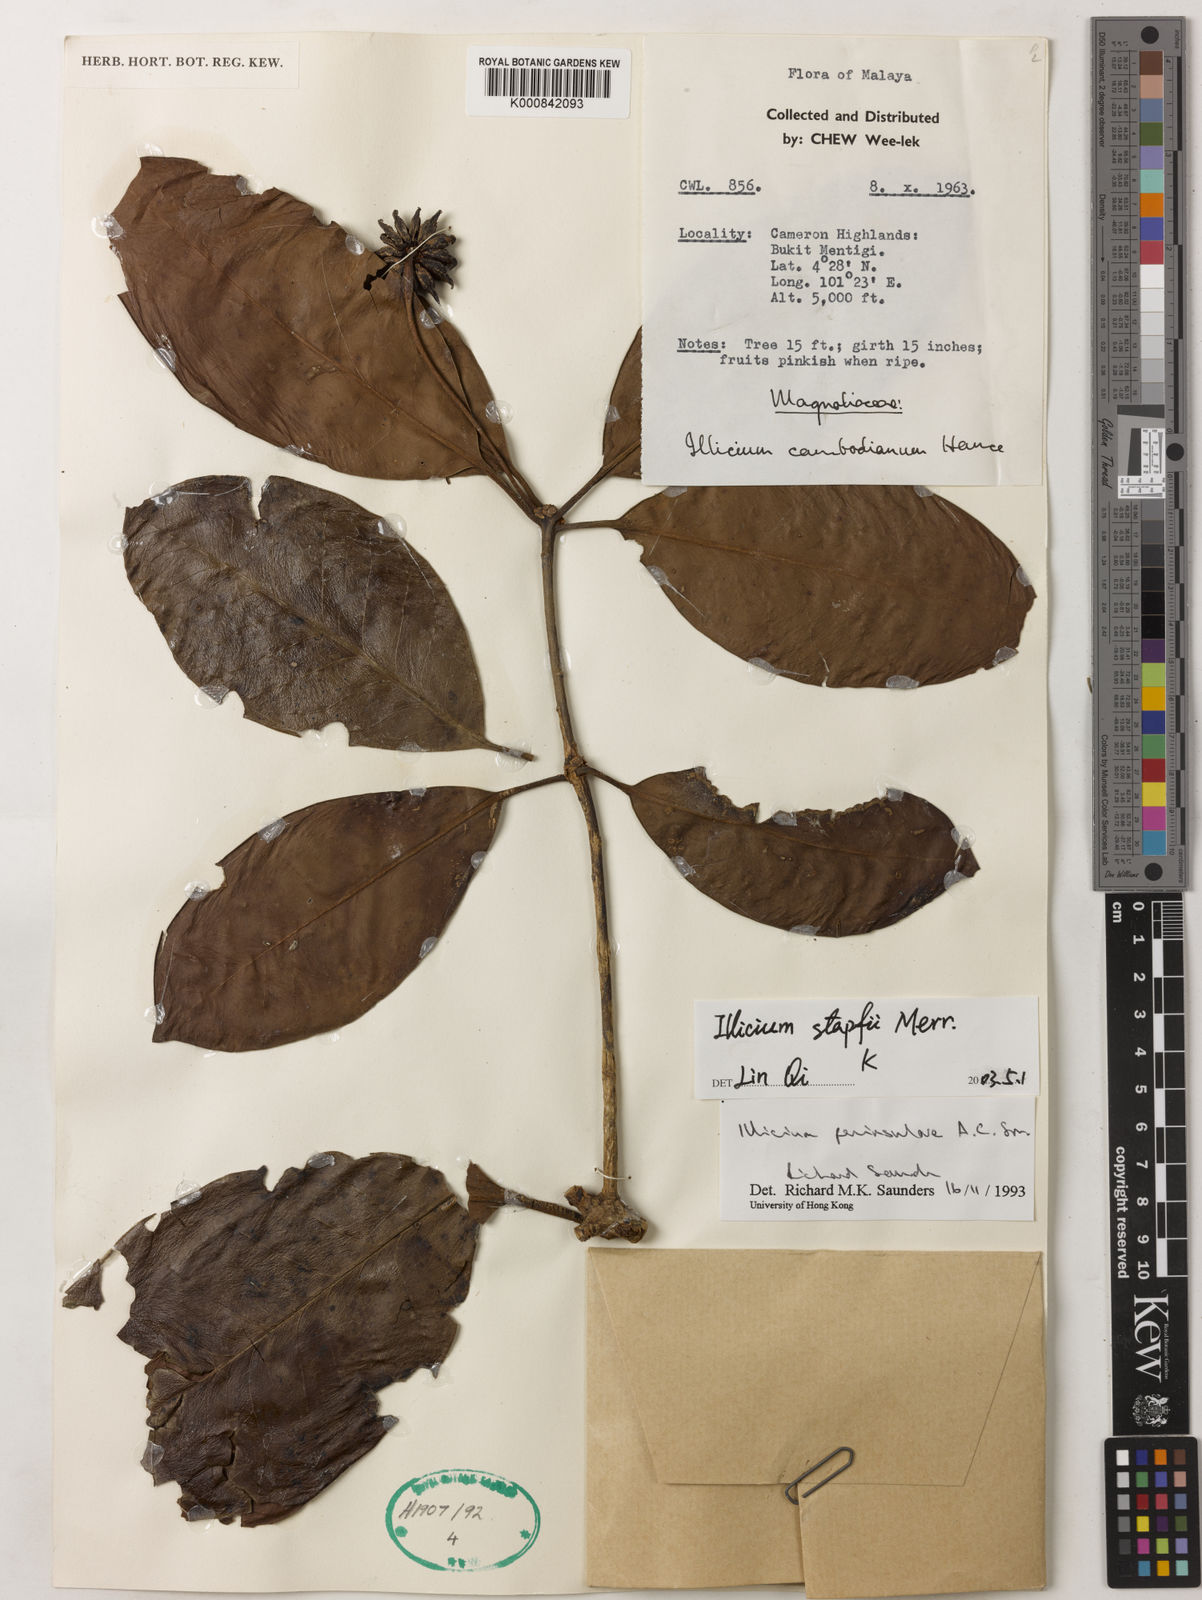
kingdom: Plantae
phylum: Tracheophyta
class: Magnoliopsida
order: Austrobaileyales
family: Schisandraceae
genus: Illicium
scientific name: Illicium stapfii
